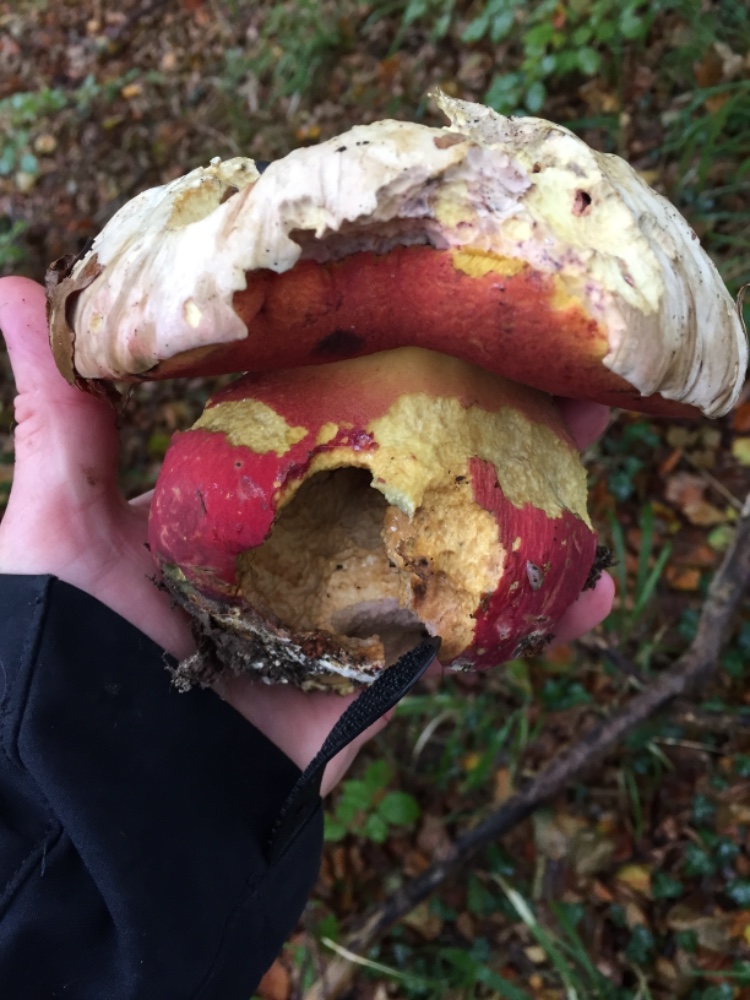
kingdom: Fungi
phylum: Basidiomycota
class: Agaricomycetes
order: Boletales
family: Boletaceae
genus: Rubroboletus
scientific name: Rubroboletus satanas
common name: Satans rørhat
